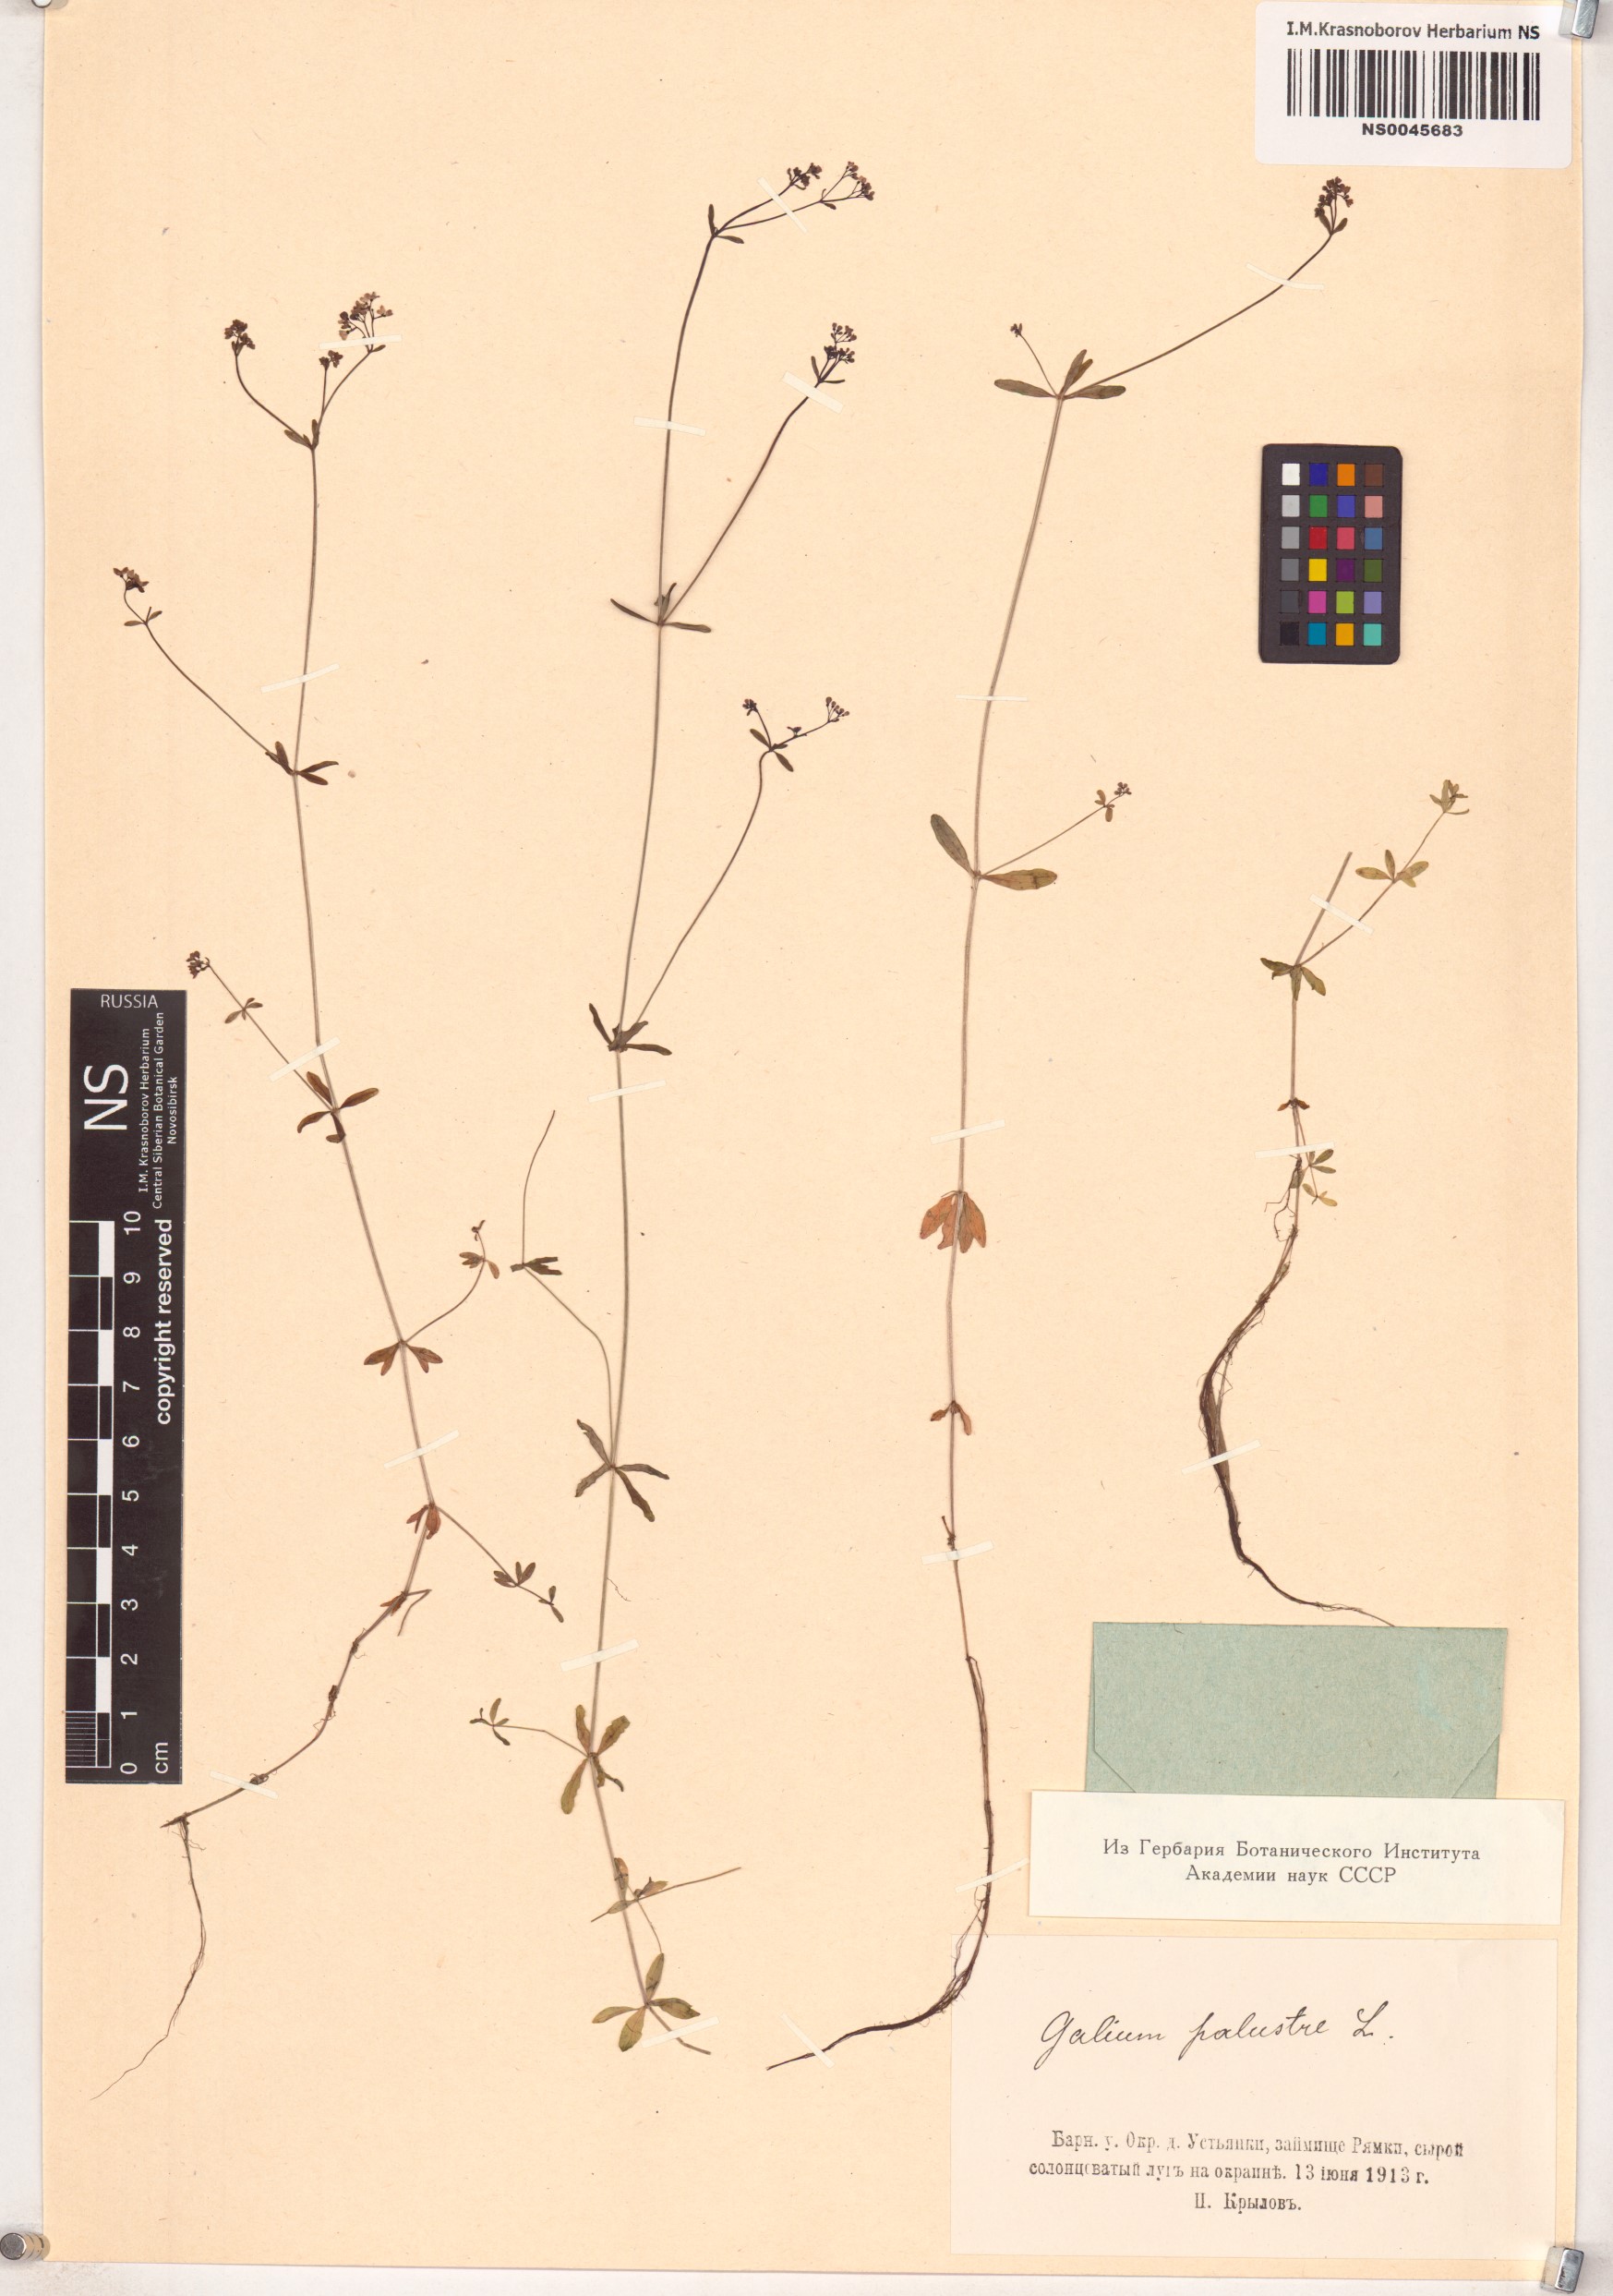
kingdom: Plantae
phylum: Tracheophyta
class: Magnoliopsida
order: Gentianales
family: Rubiaceae
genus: Galium
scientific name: Galium palustre
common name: Common marsh-bedstraw
